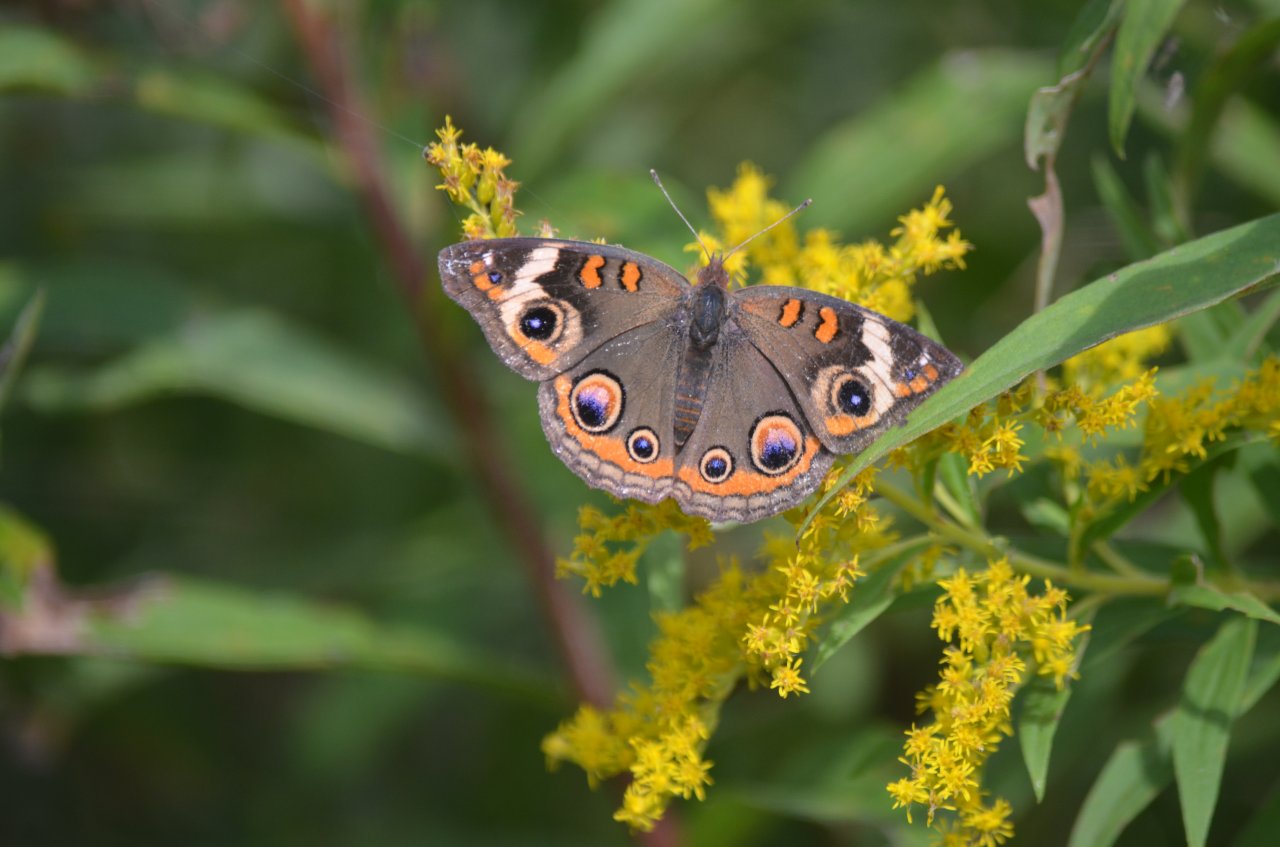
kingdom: Animalia
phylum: Arthropoda
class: Insecta
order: Lepidoptera
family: Nymphalidae
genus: Junonia
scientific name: Junonia coenia
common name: Common Buckeye
